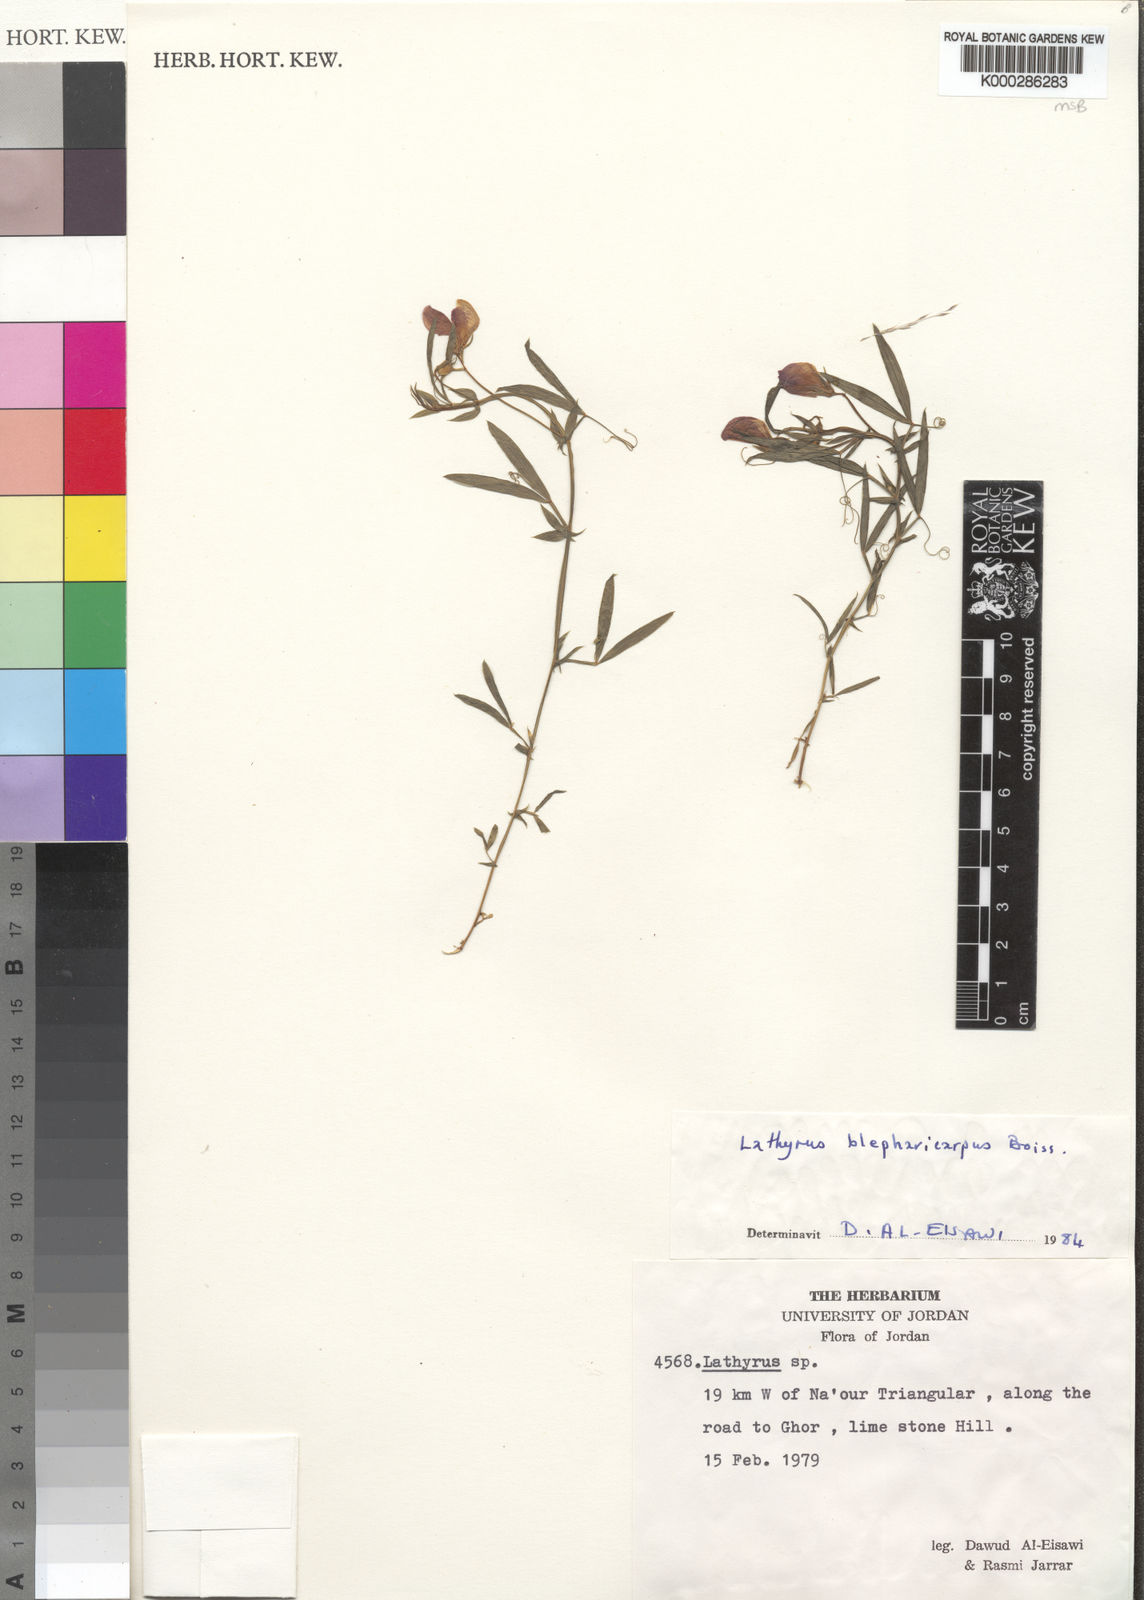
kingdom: Plantae
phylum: Tracheophyta
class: Magnoliopsida
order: Fabales
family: Fabaceae
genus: Lathyrus
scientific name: Lathyrus
